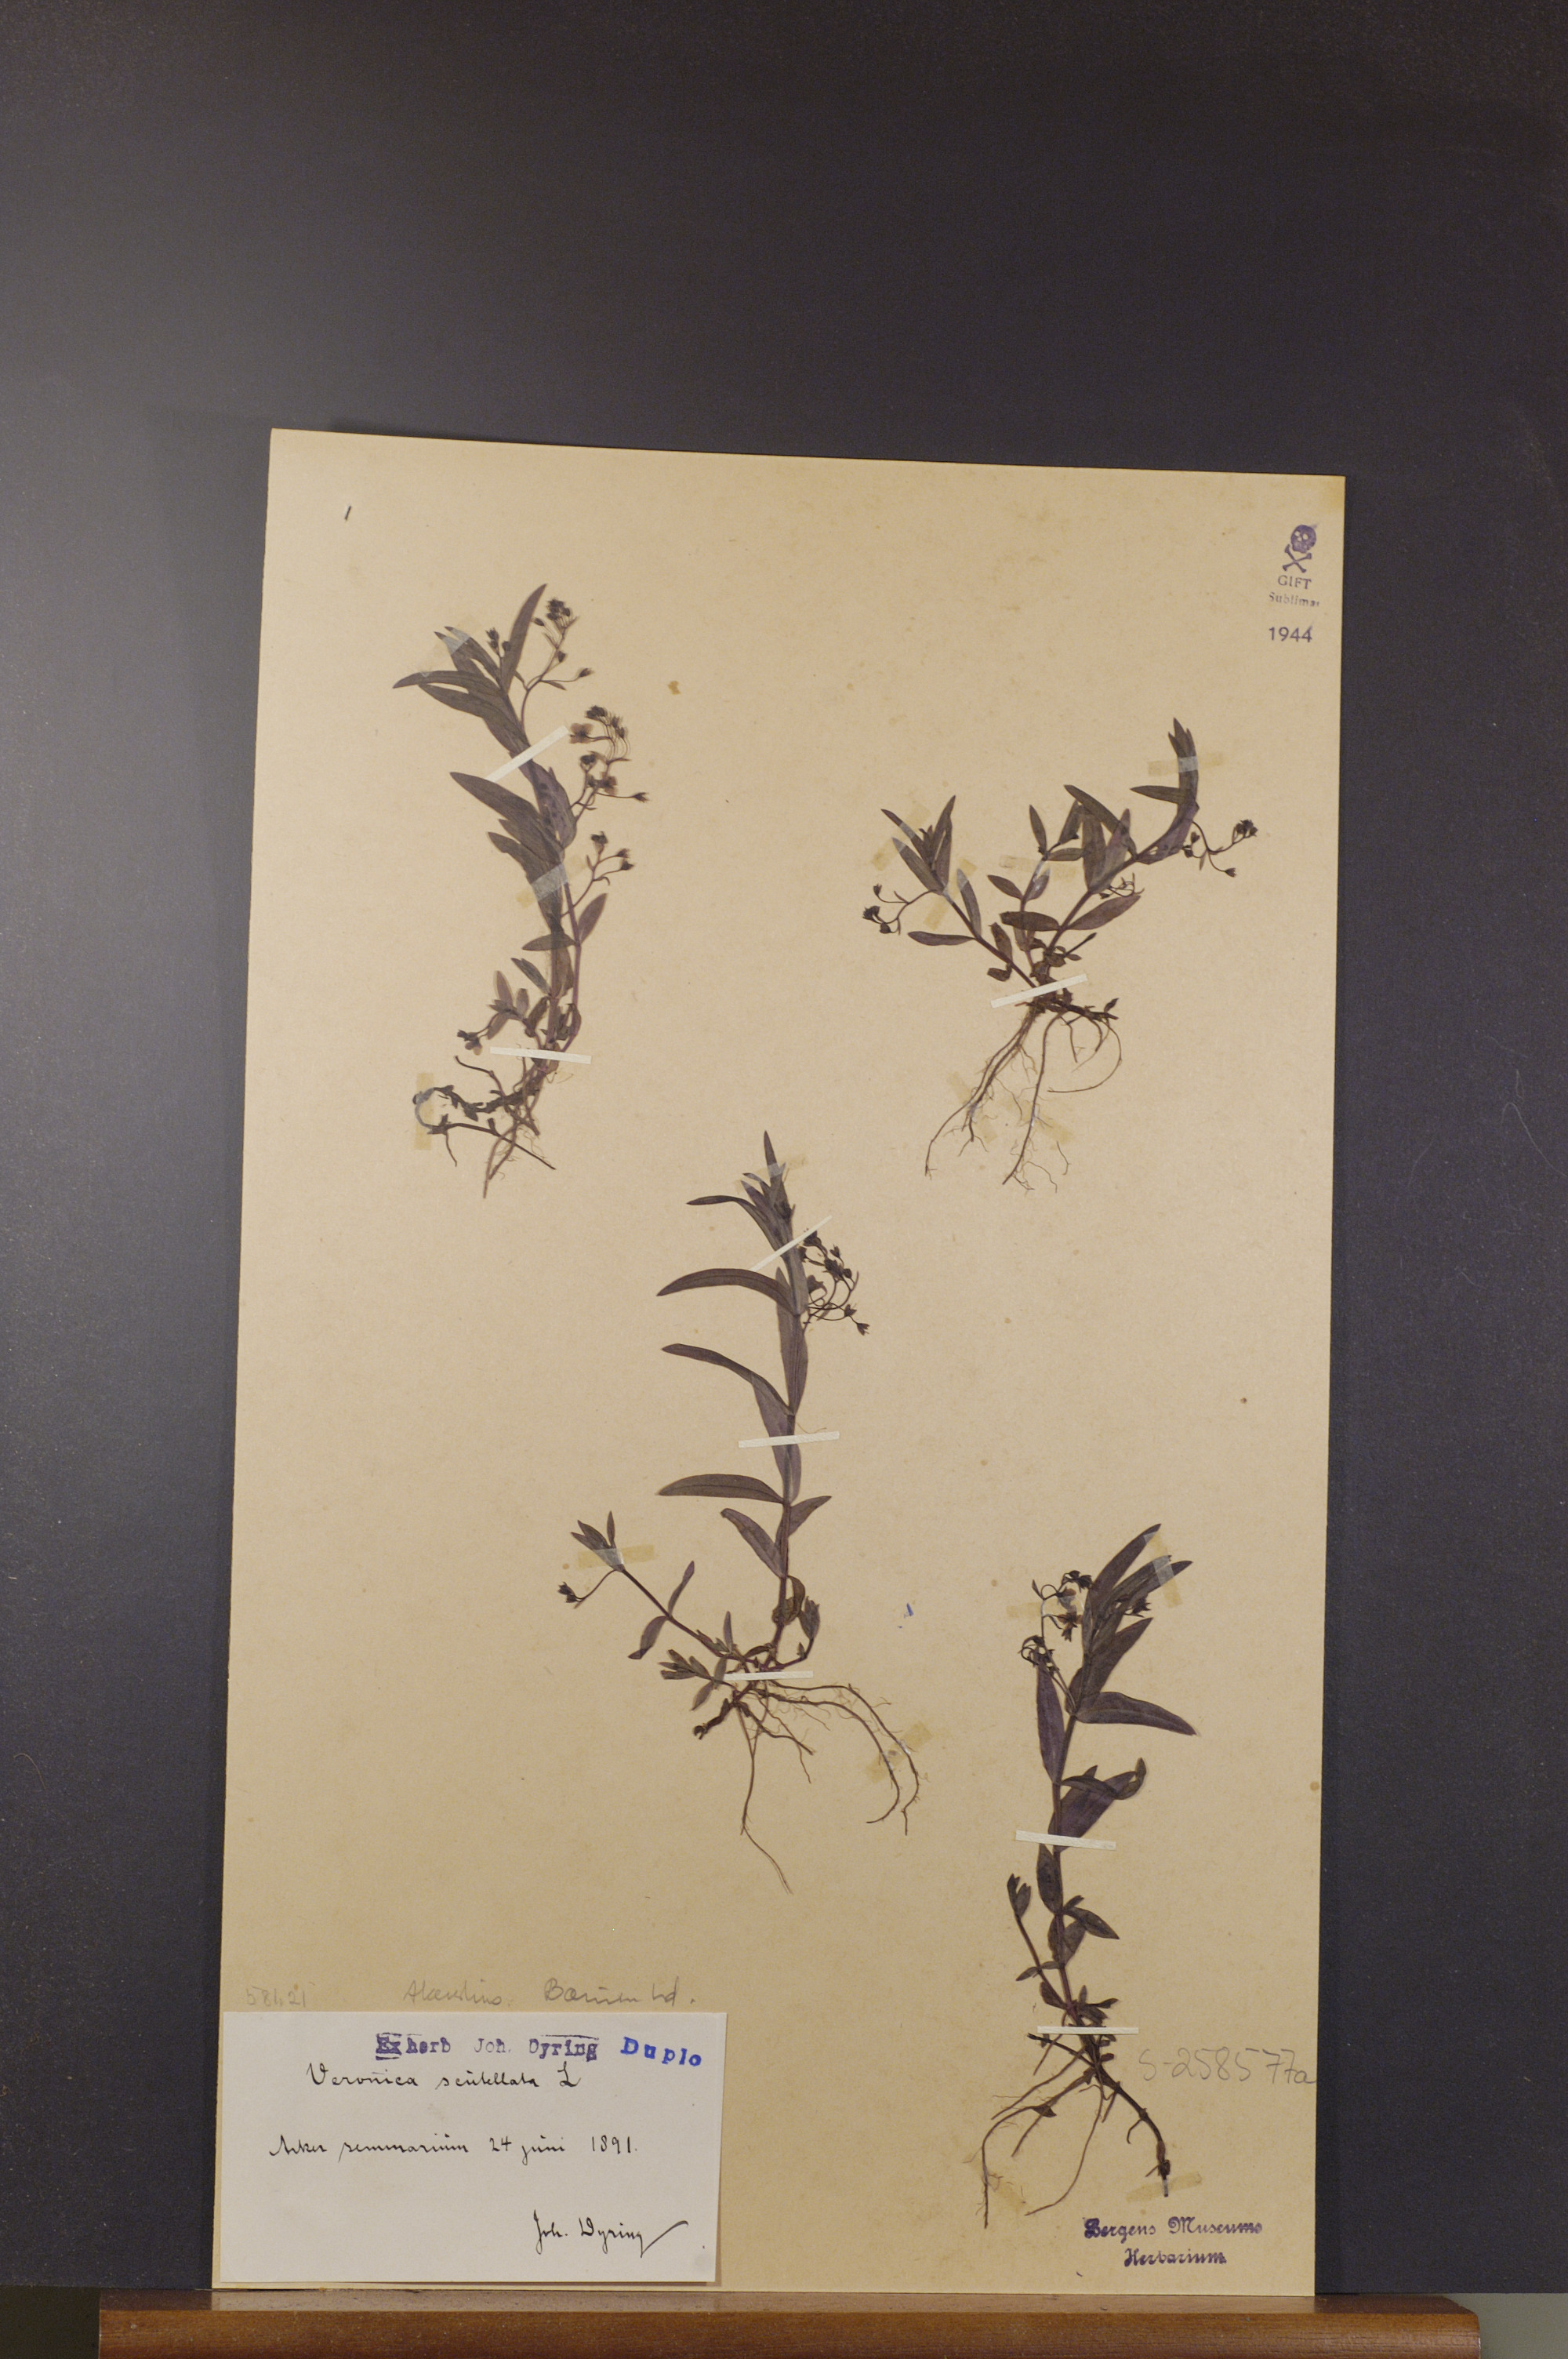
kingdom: Plantae
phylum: Tracheophyta
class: Magnoliopsida
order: Lamiales
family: Plantaginaceae
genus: Veronica
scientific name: Veronica scutellata
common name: Marsh speedwell
